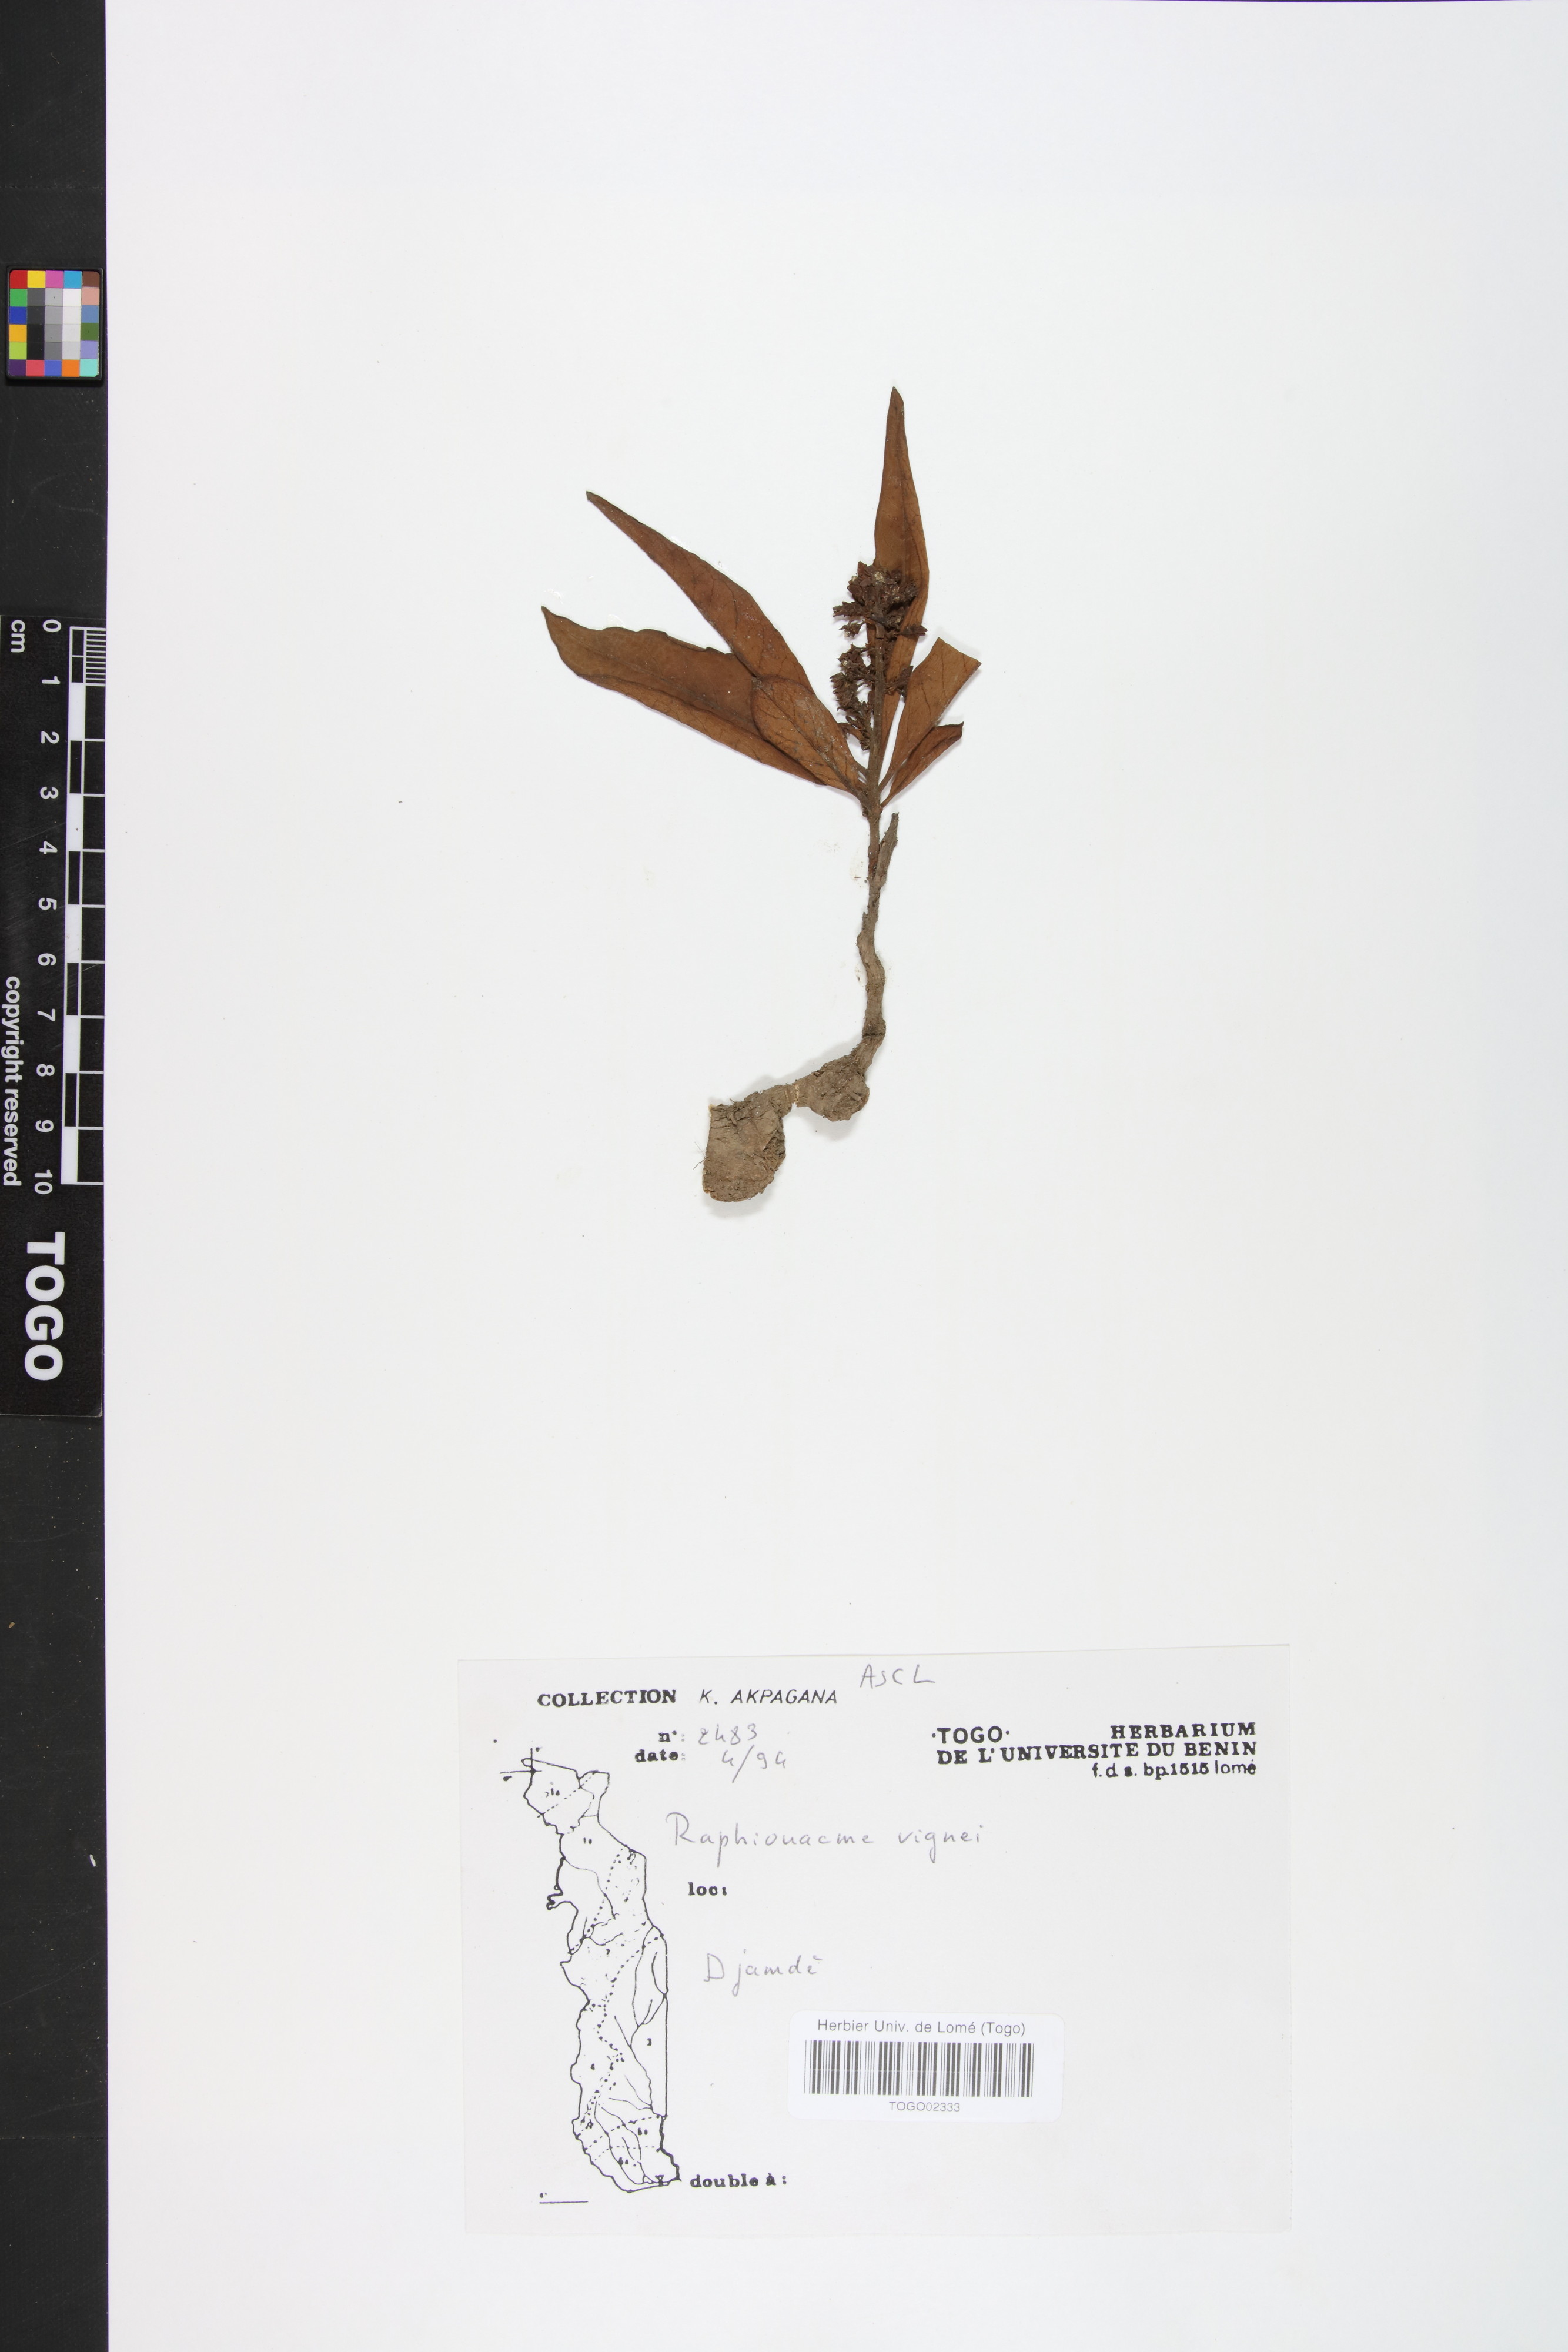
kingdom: Plantae
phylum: Tracheophyta
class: Magnoliopsida
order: Gentianales
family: Apocynaceae
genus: Raphionacme
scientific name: Raphionacme vignei
